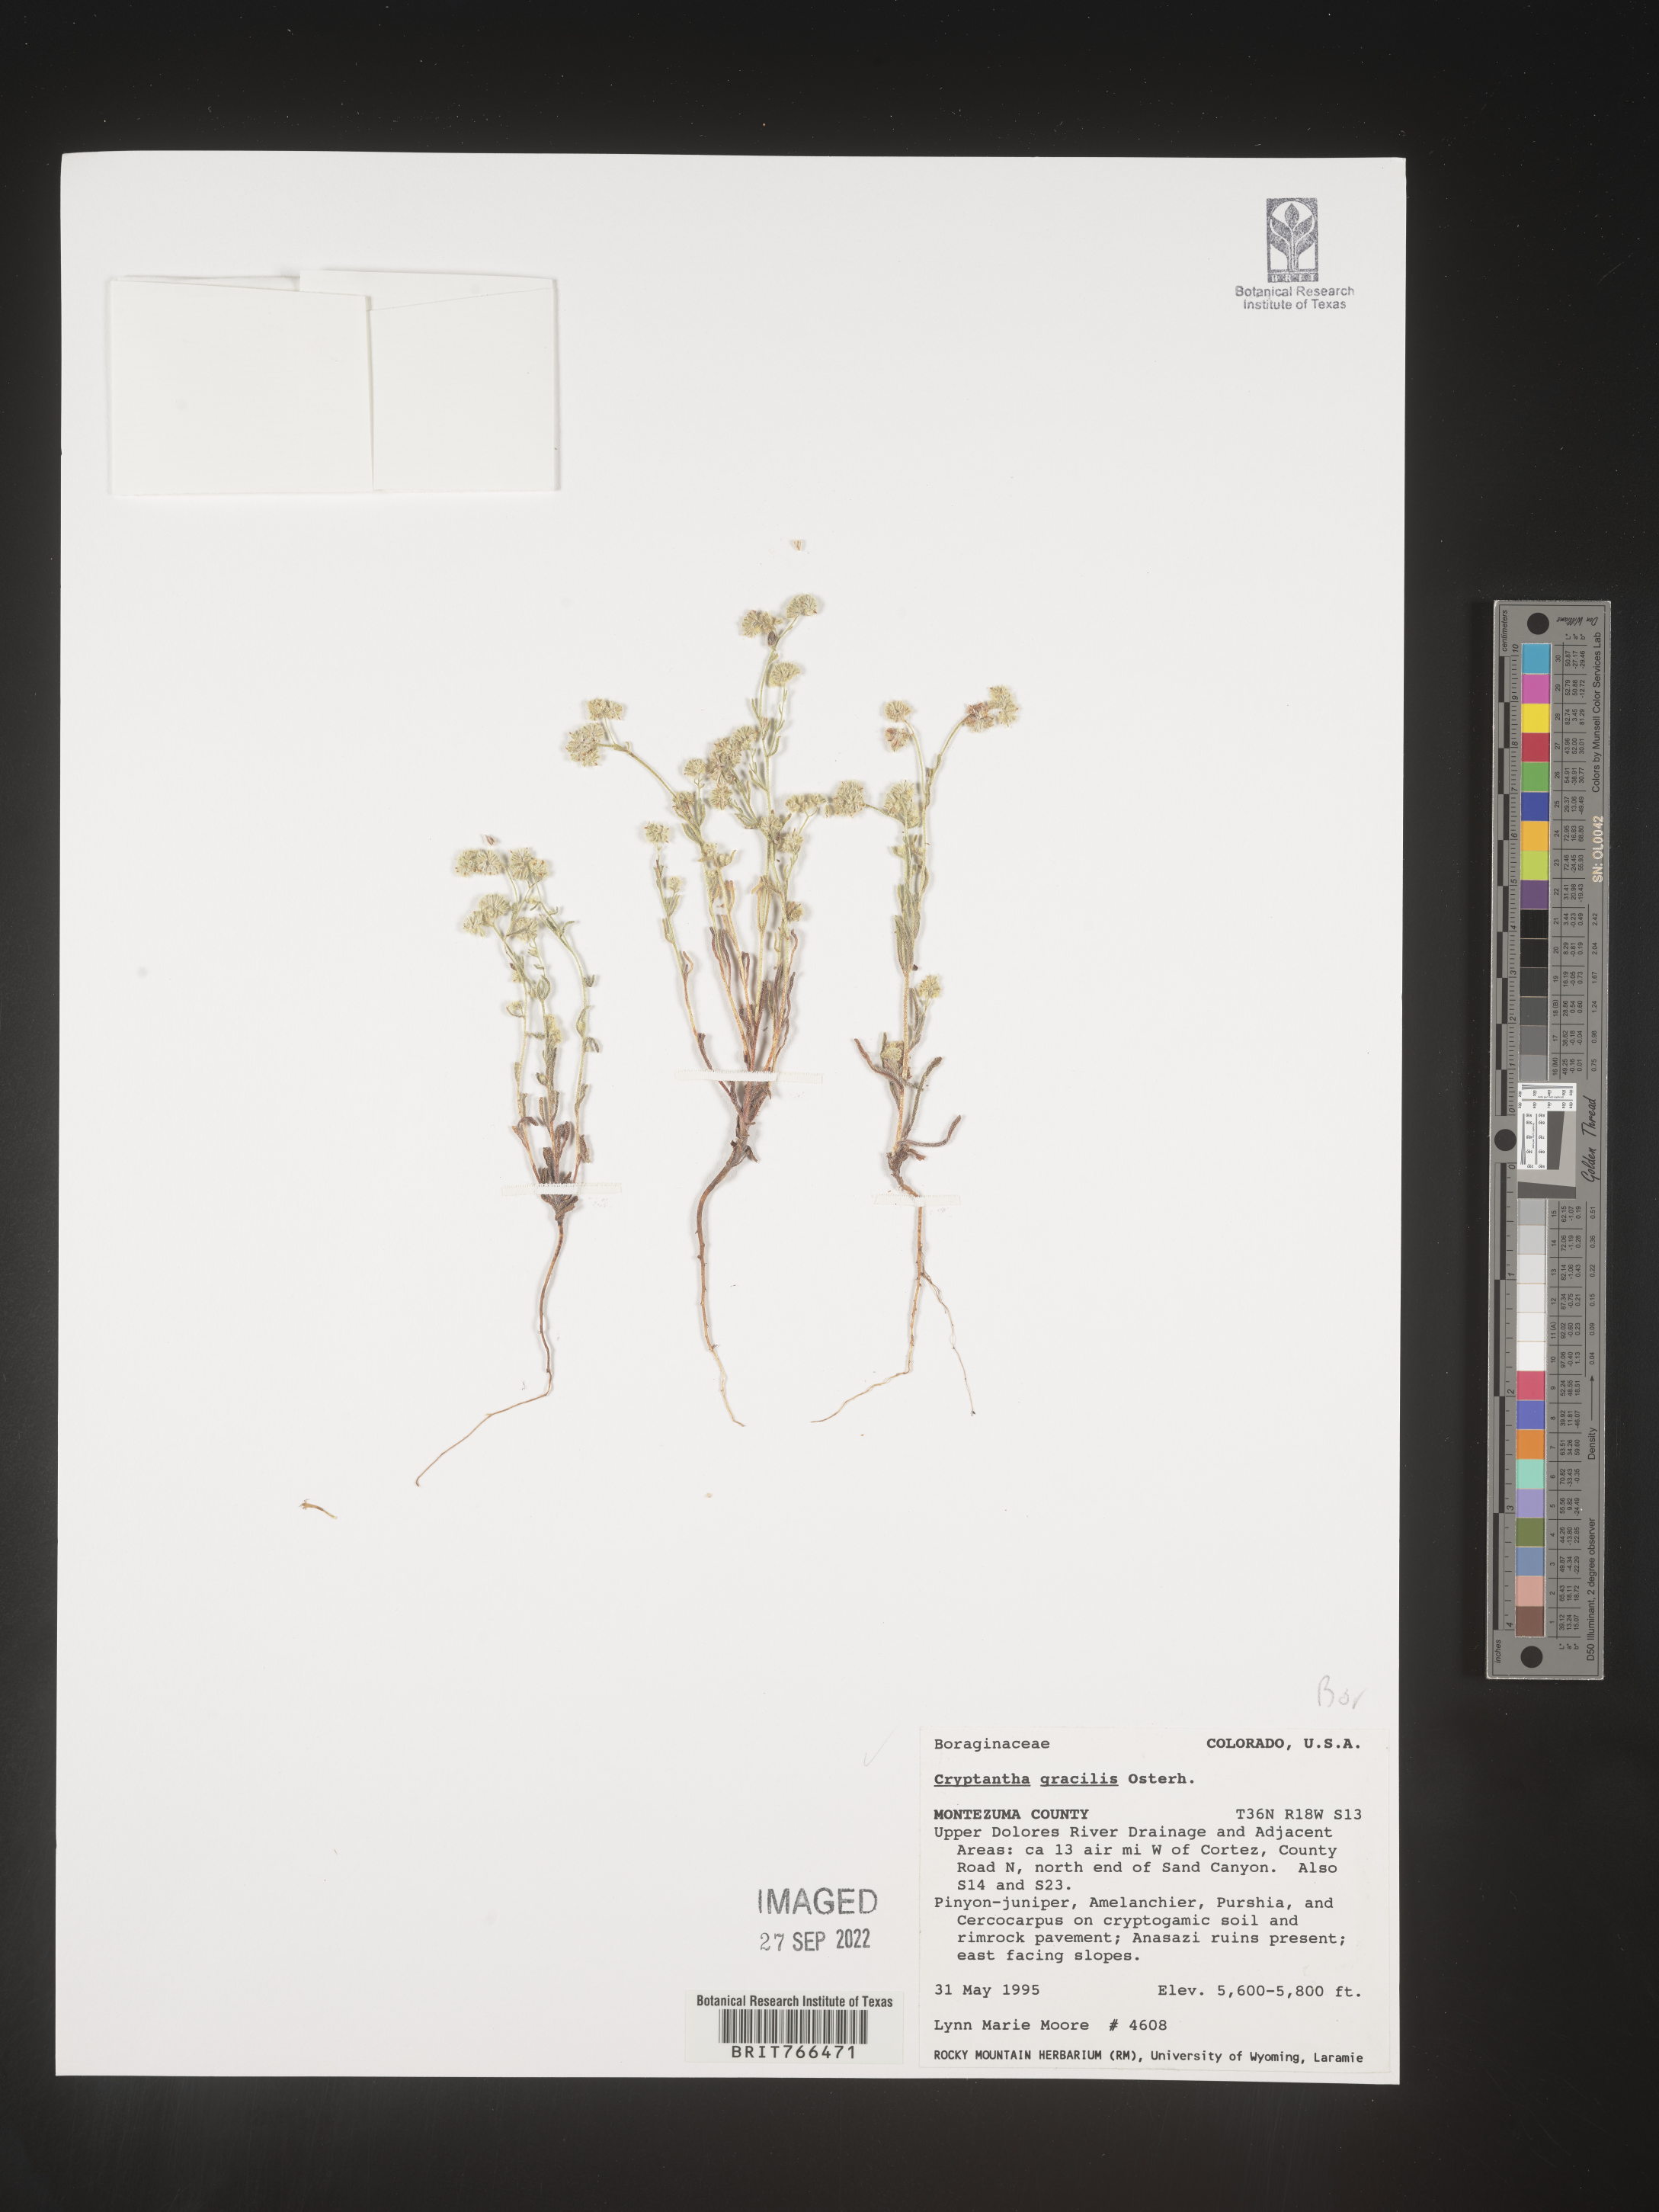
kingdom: Plantae
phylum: Tracheophyta
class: Magnoliopsida
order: Boraginales
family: Boraginaceae
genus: Cryptantha
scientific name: Cryptantha
